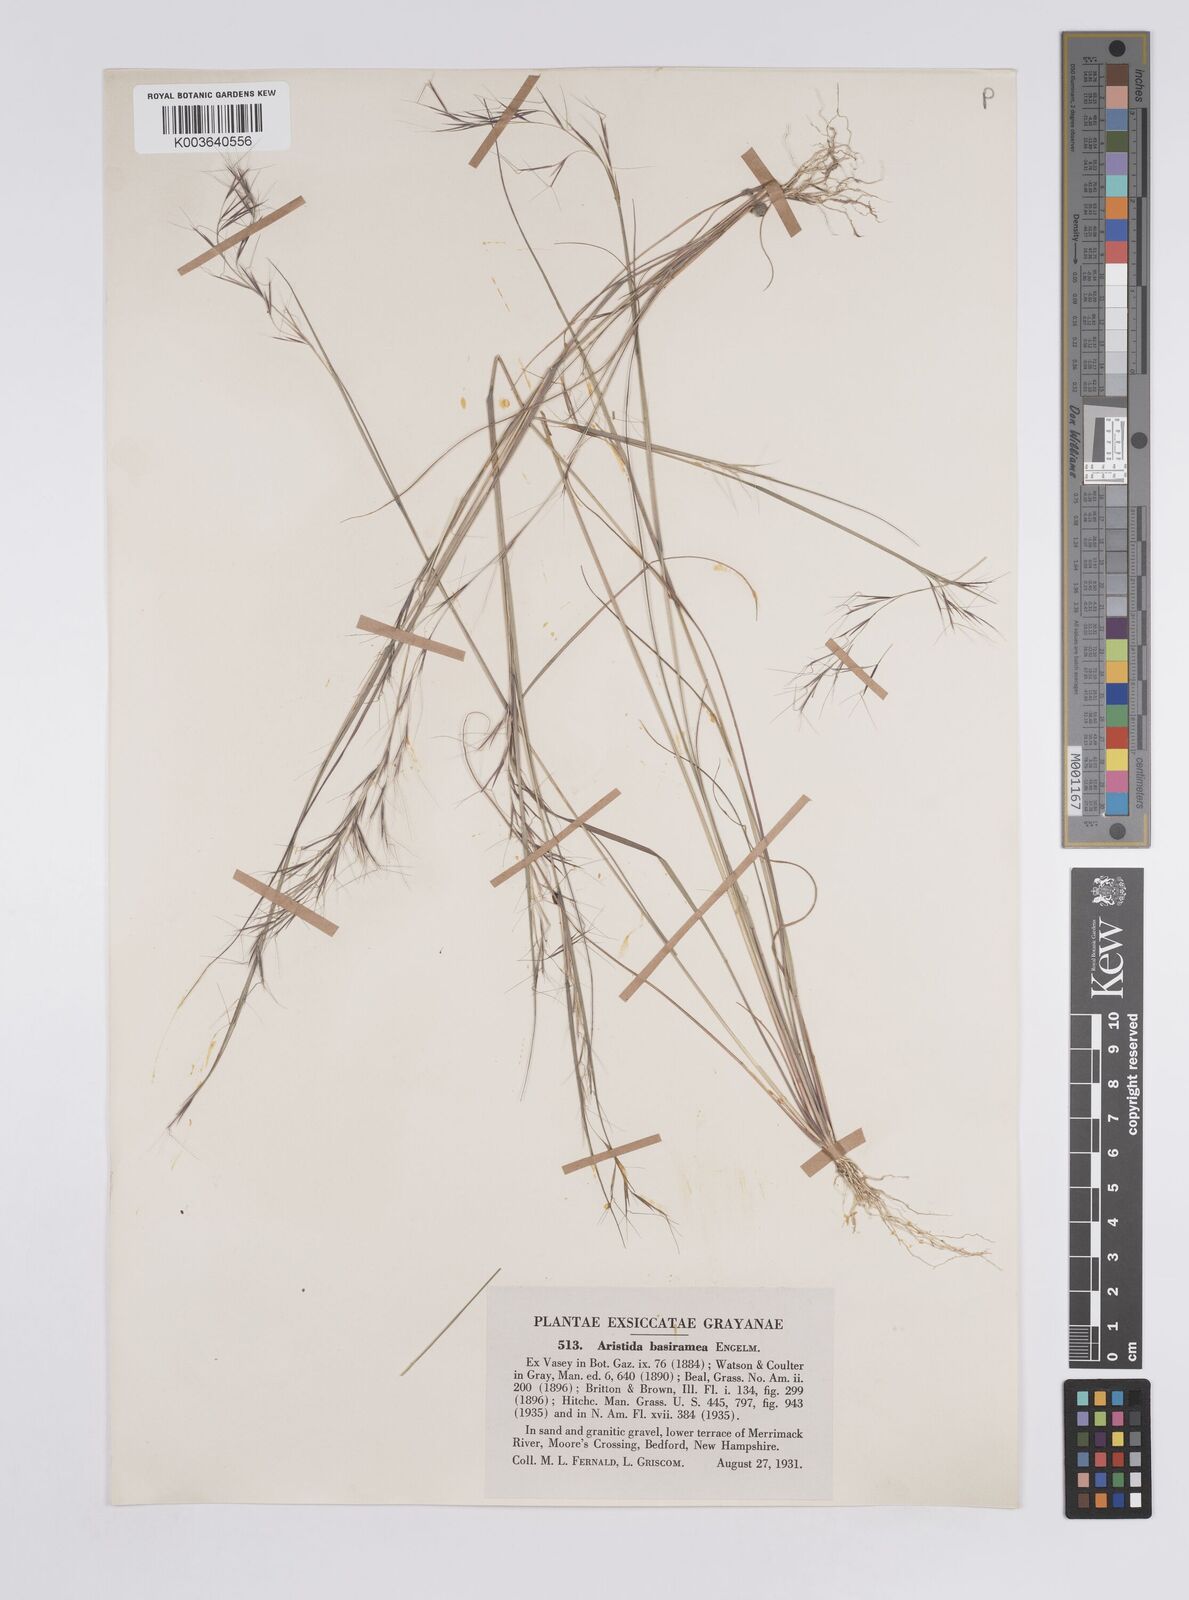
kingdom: Plantae
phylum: Tracheophyta
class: Liliopsida
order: Poales
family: Poaceae
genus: Aristida
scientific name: Aristida basiramea
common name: Forked three-awned grass
